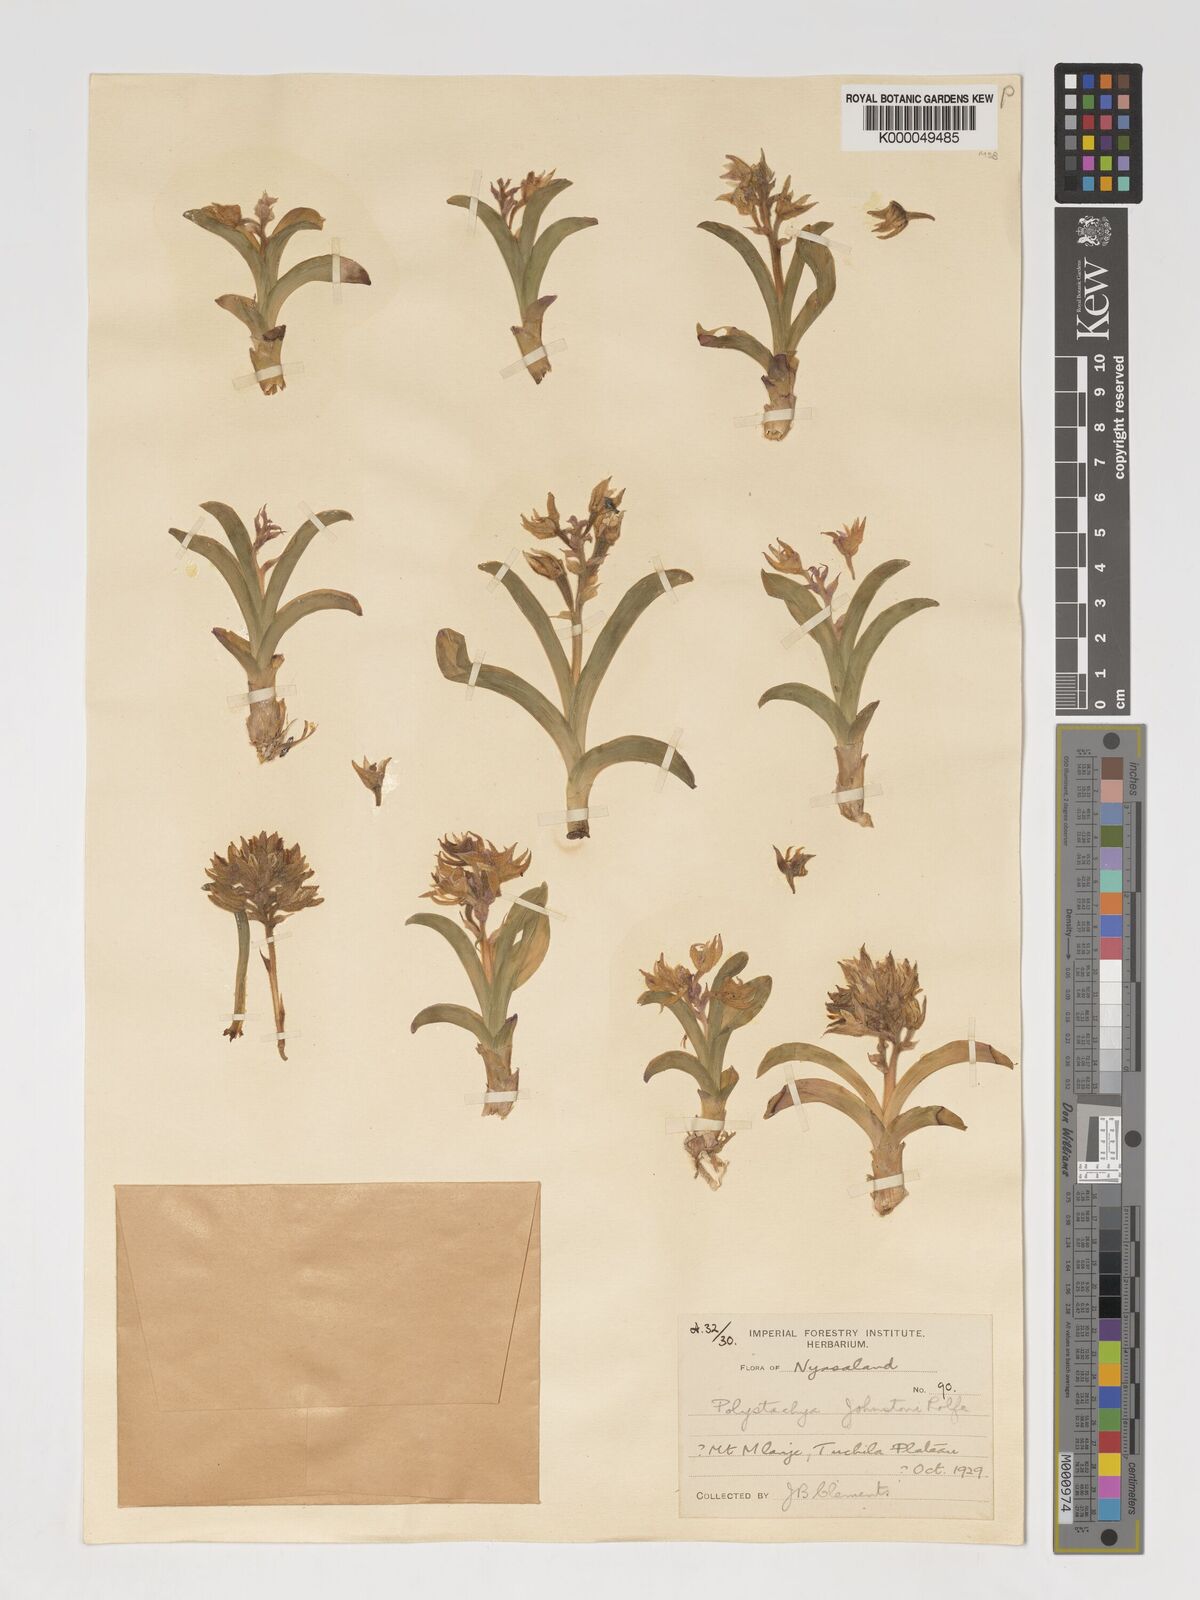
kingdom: Plantae
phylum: Tracheophyta
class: Liliopsida
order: Asparagales
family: Orchidaceae
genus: Polystachya
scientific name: Polystachya johnstonii
